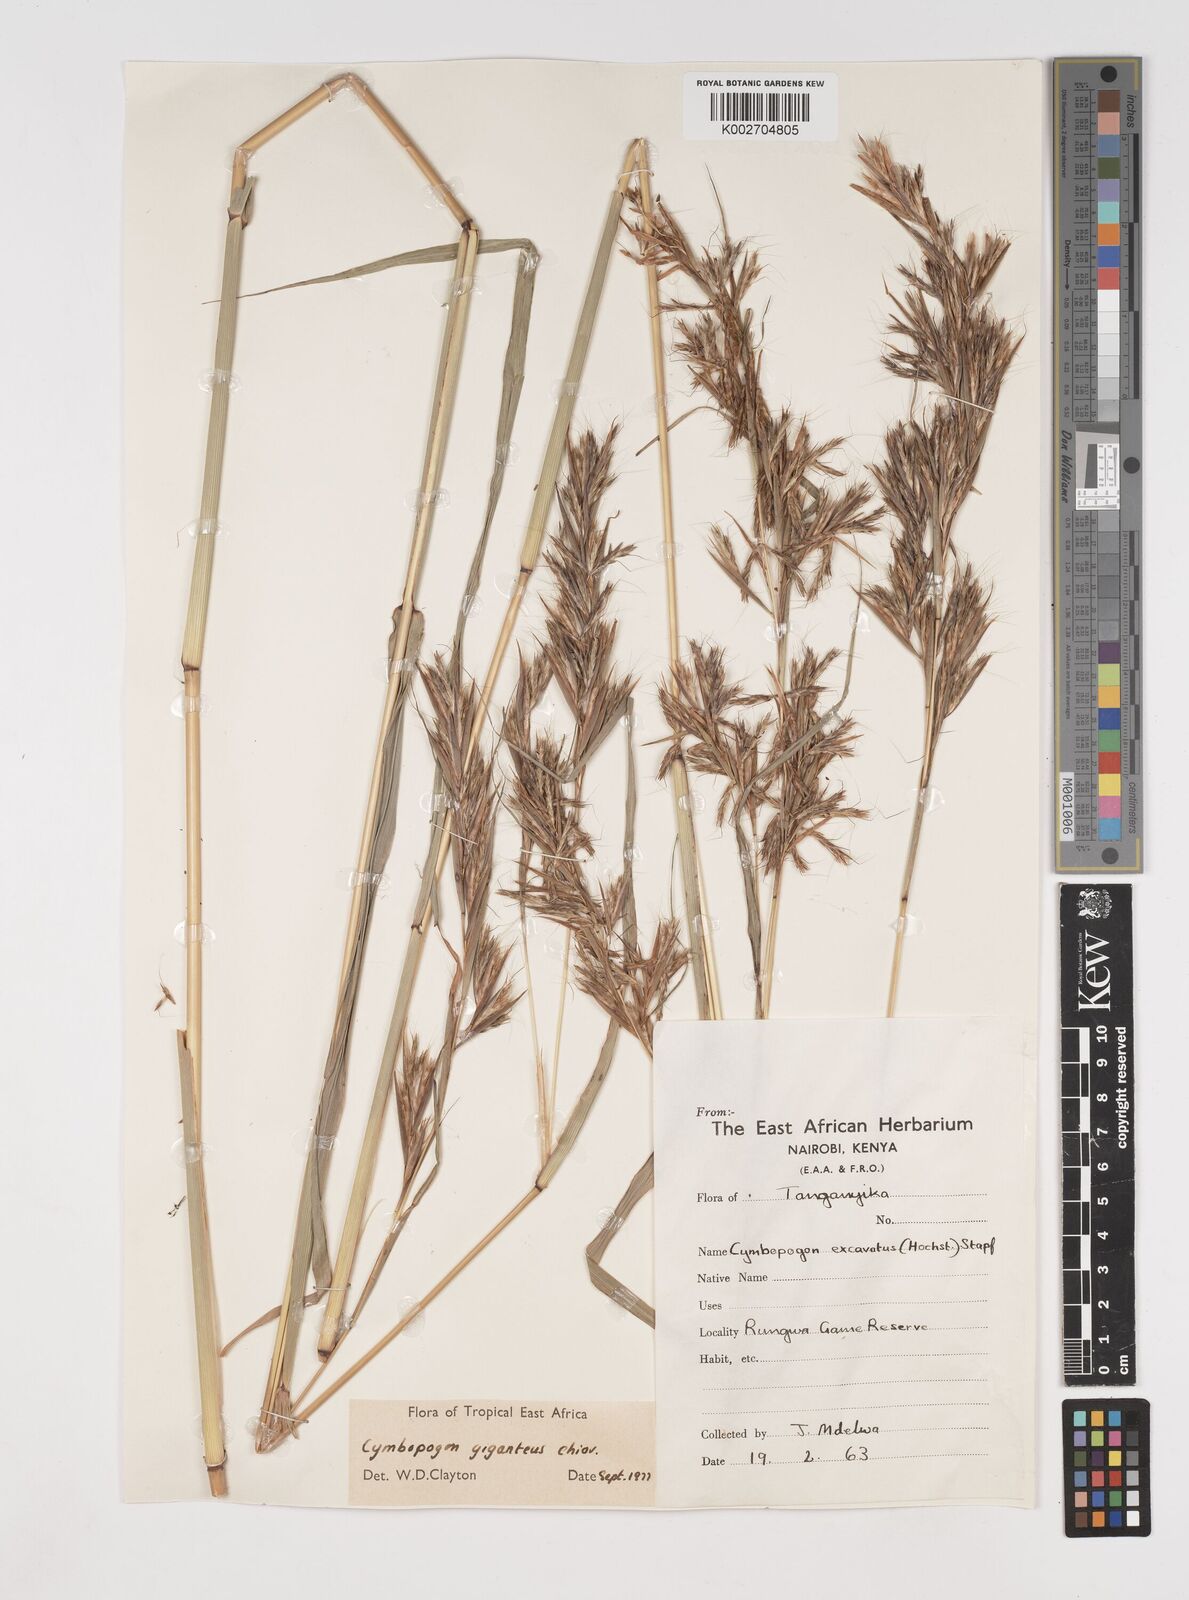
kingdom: Plantae
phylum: Tracheophyta
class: Liliopsida
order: Poales
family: Poaceae
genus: Cymbopogon
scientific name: Cymbopogon giganteus
